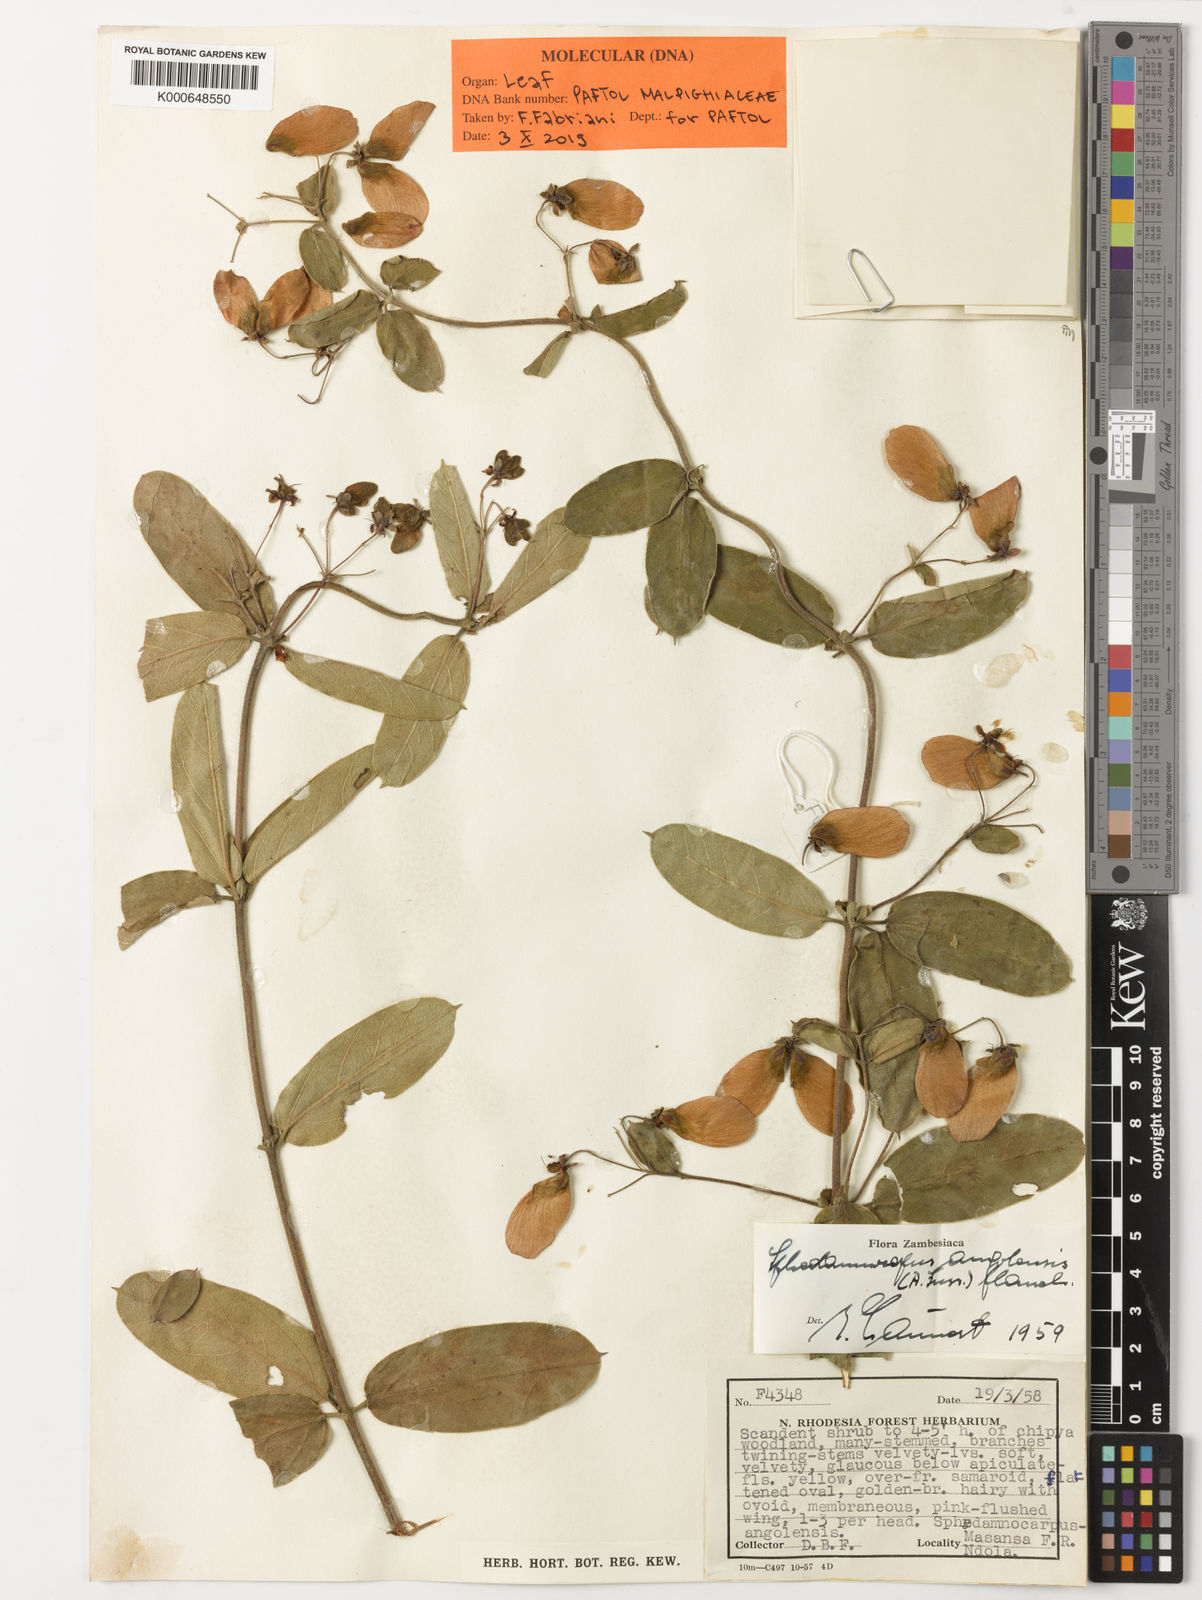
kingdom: Plantae
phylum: Tracheophyta
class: Magnoliopsida
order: Malpighiales
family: Malpighiaceae
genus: Sphedamnocarpus
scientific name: Sphedamnocarpus
